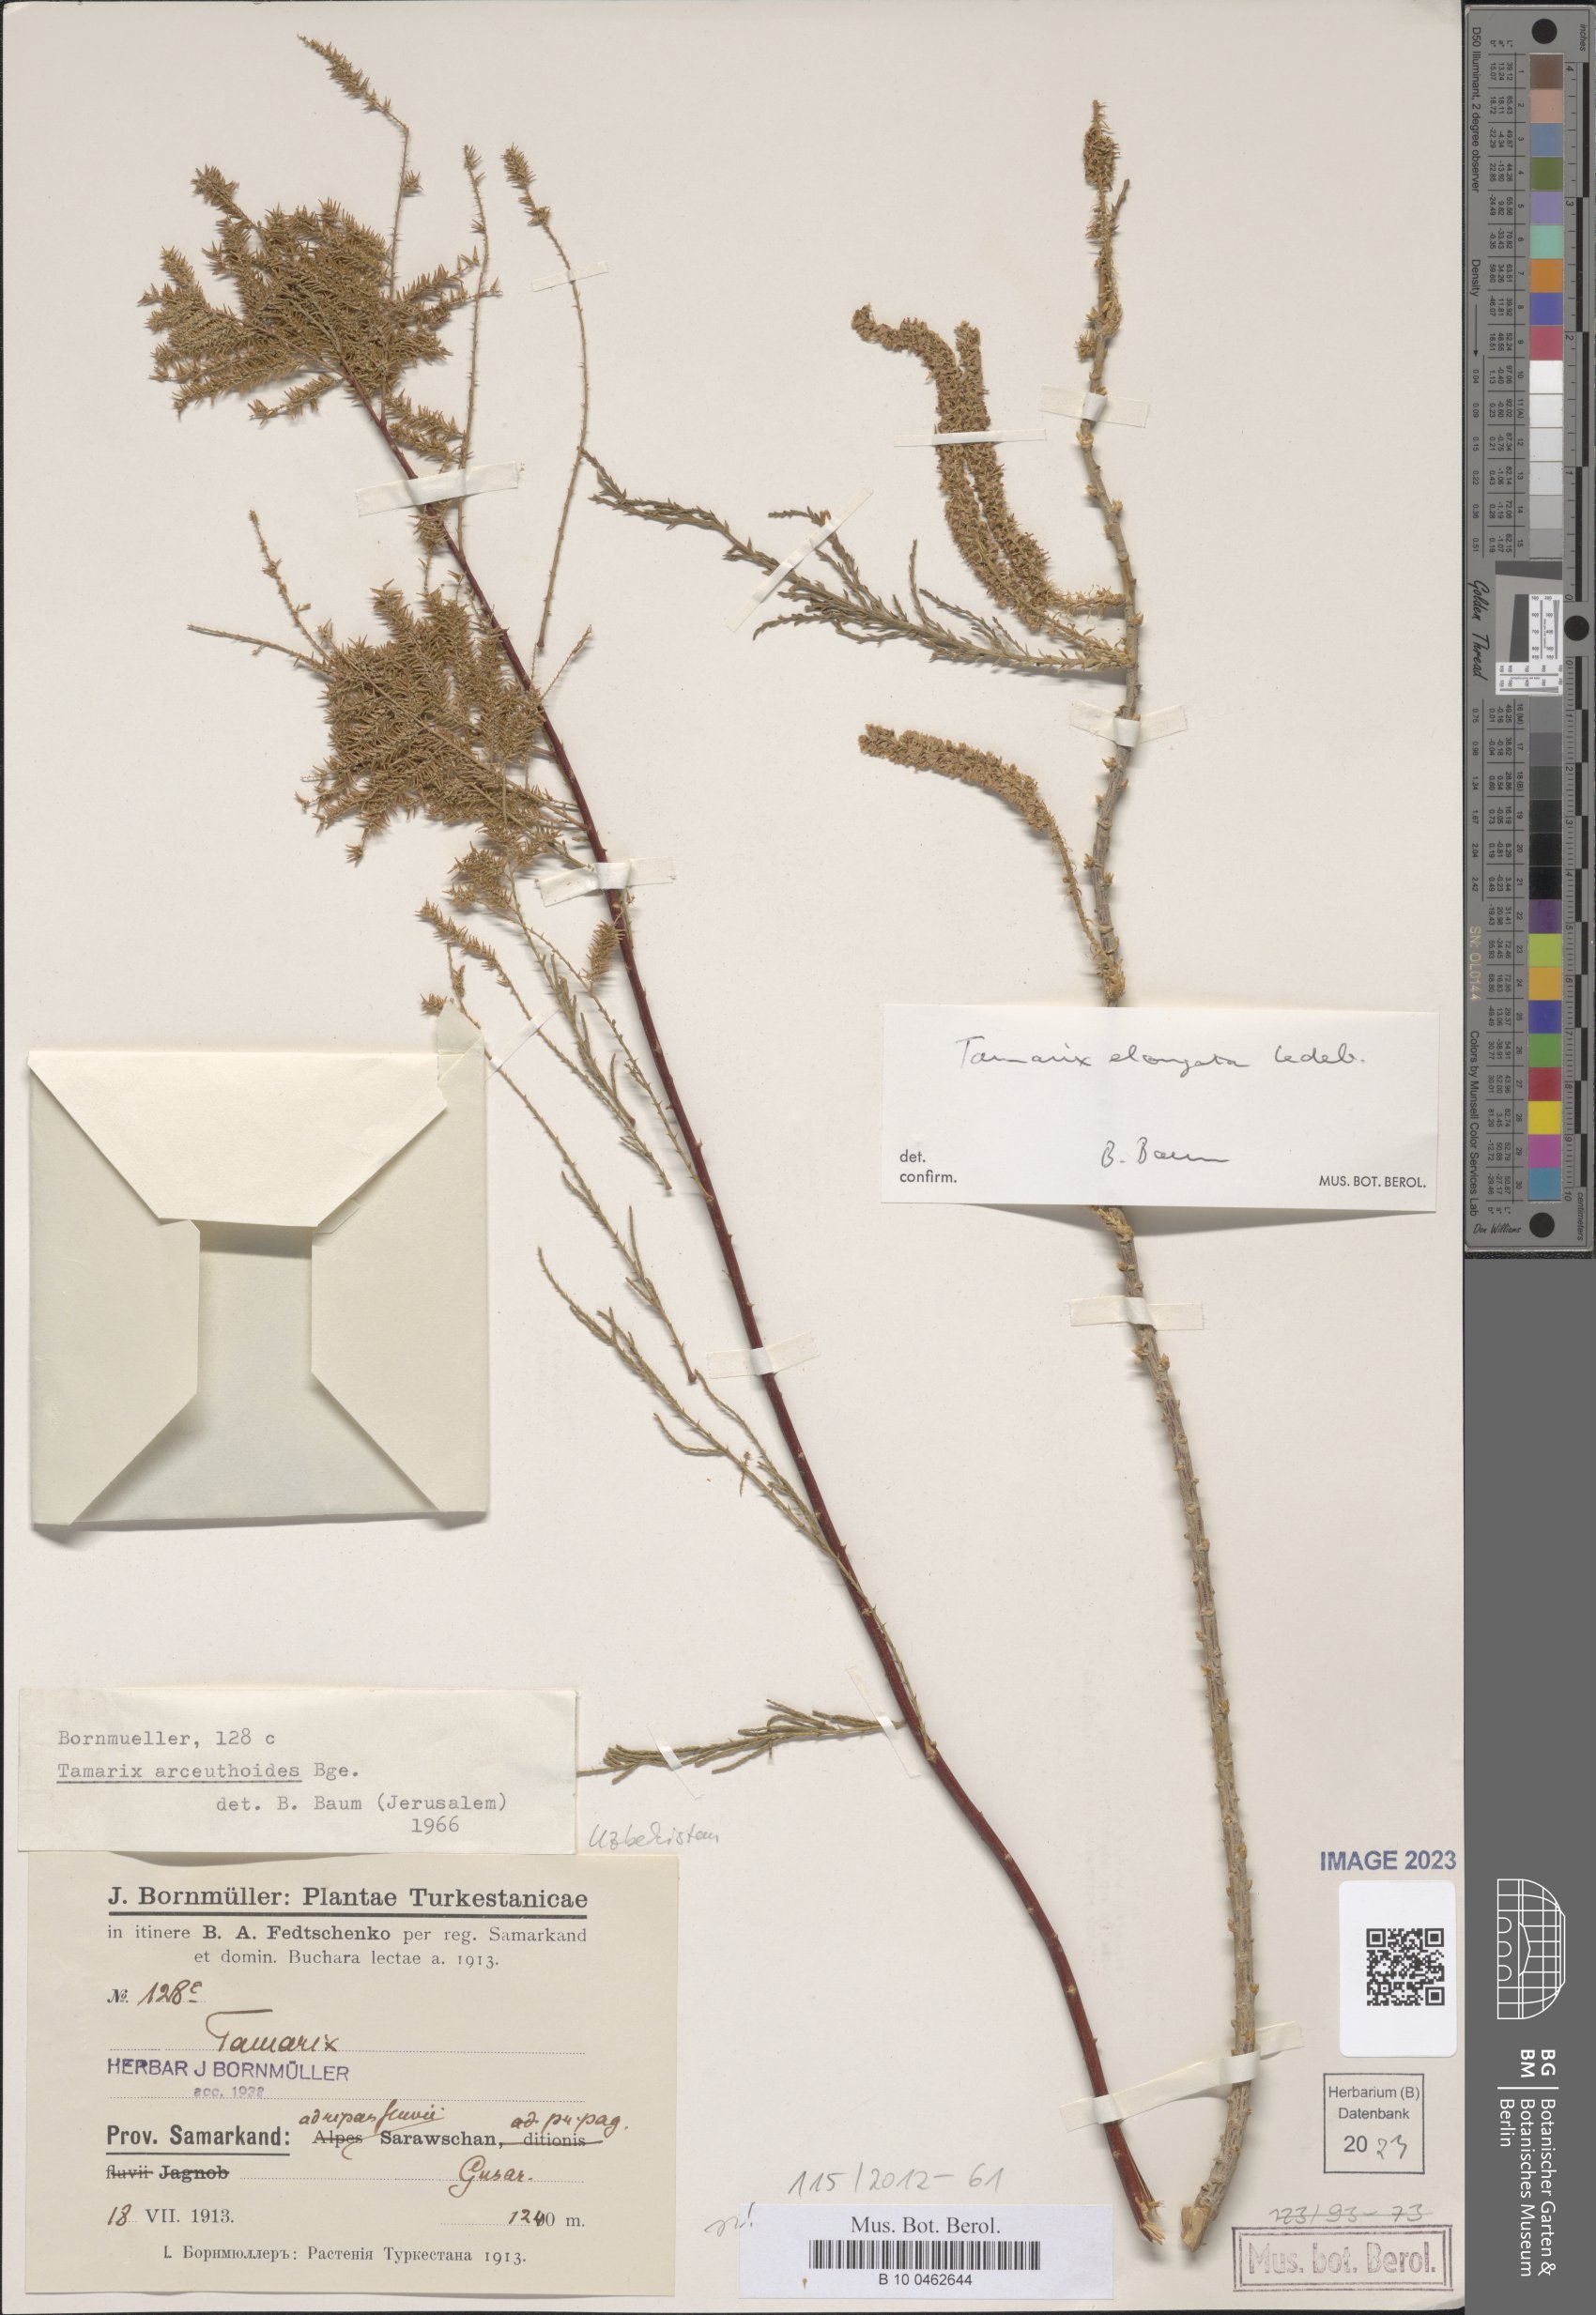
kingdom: Plantae
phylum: Tracheophyta
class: Magnoliopsida
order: Caryophyllales
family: Tamaricaceae
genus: Tamarix
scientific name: Tamarix elongata
